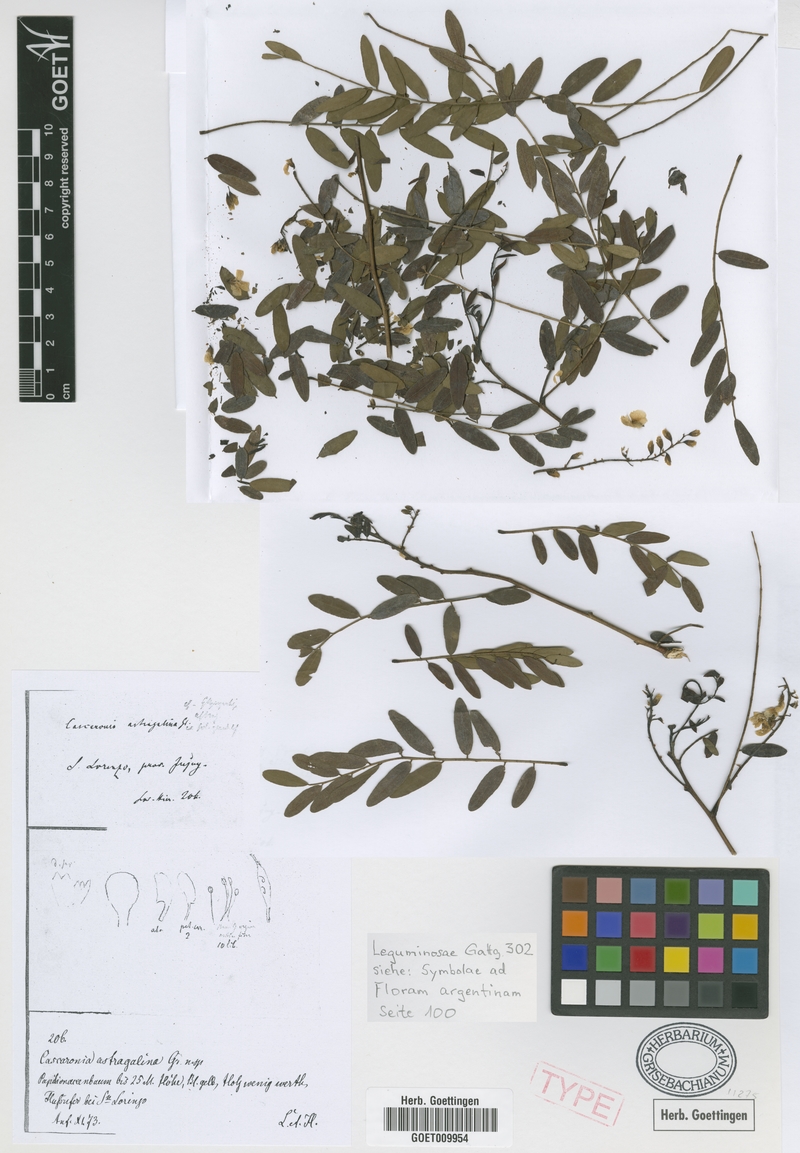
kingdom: Plantae
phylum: Tracheophyta
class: Magnoliopsida
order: Fabales
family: Fabaceae
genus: Cascaronia
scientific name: Cascaronia astragalina
